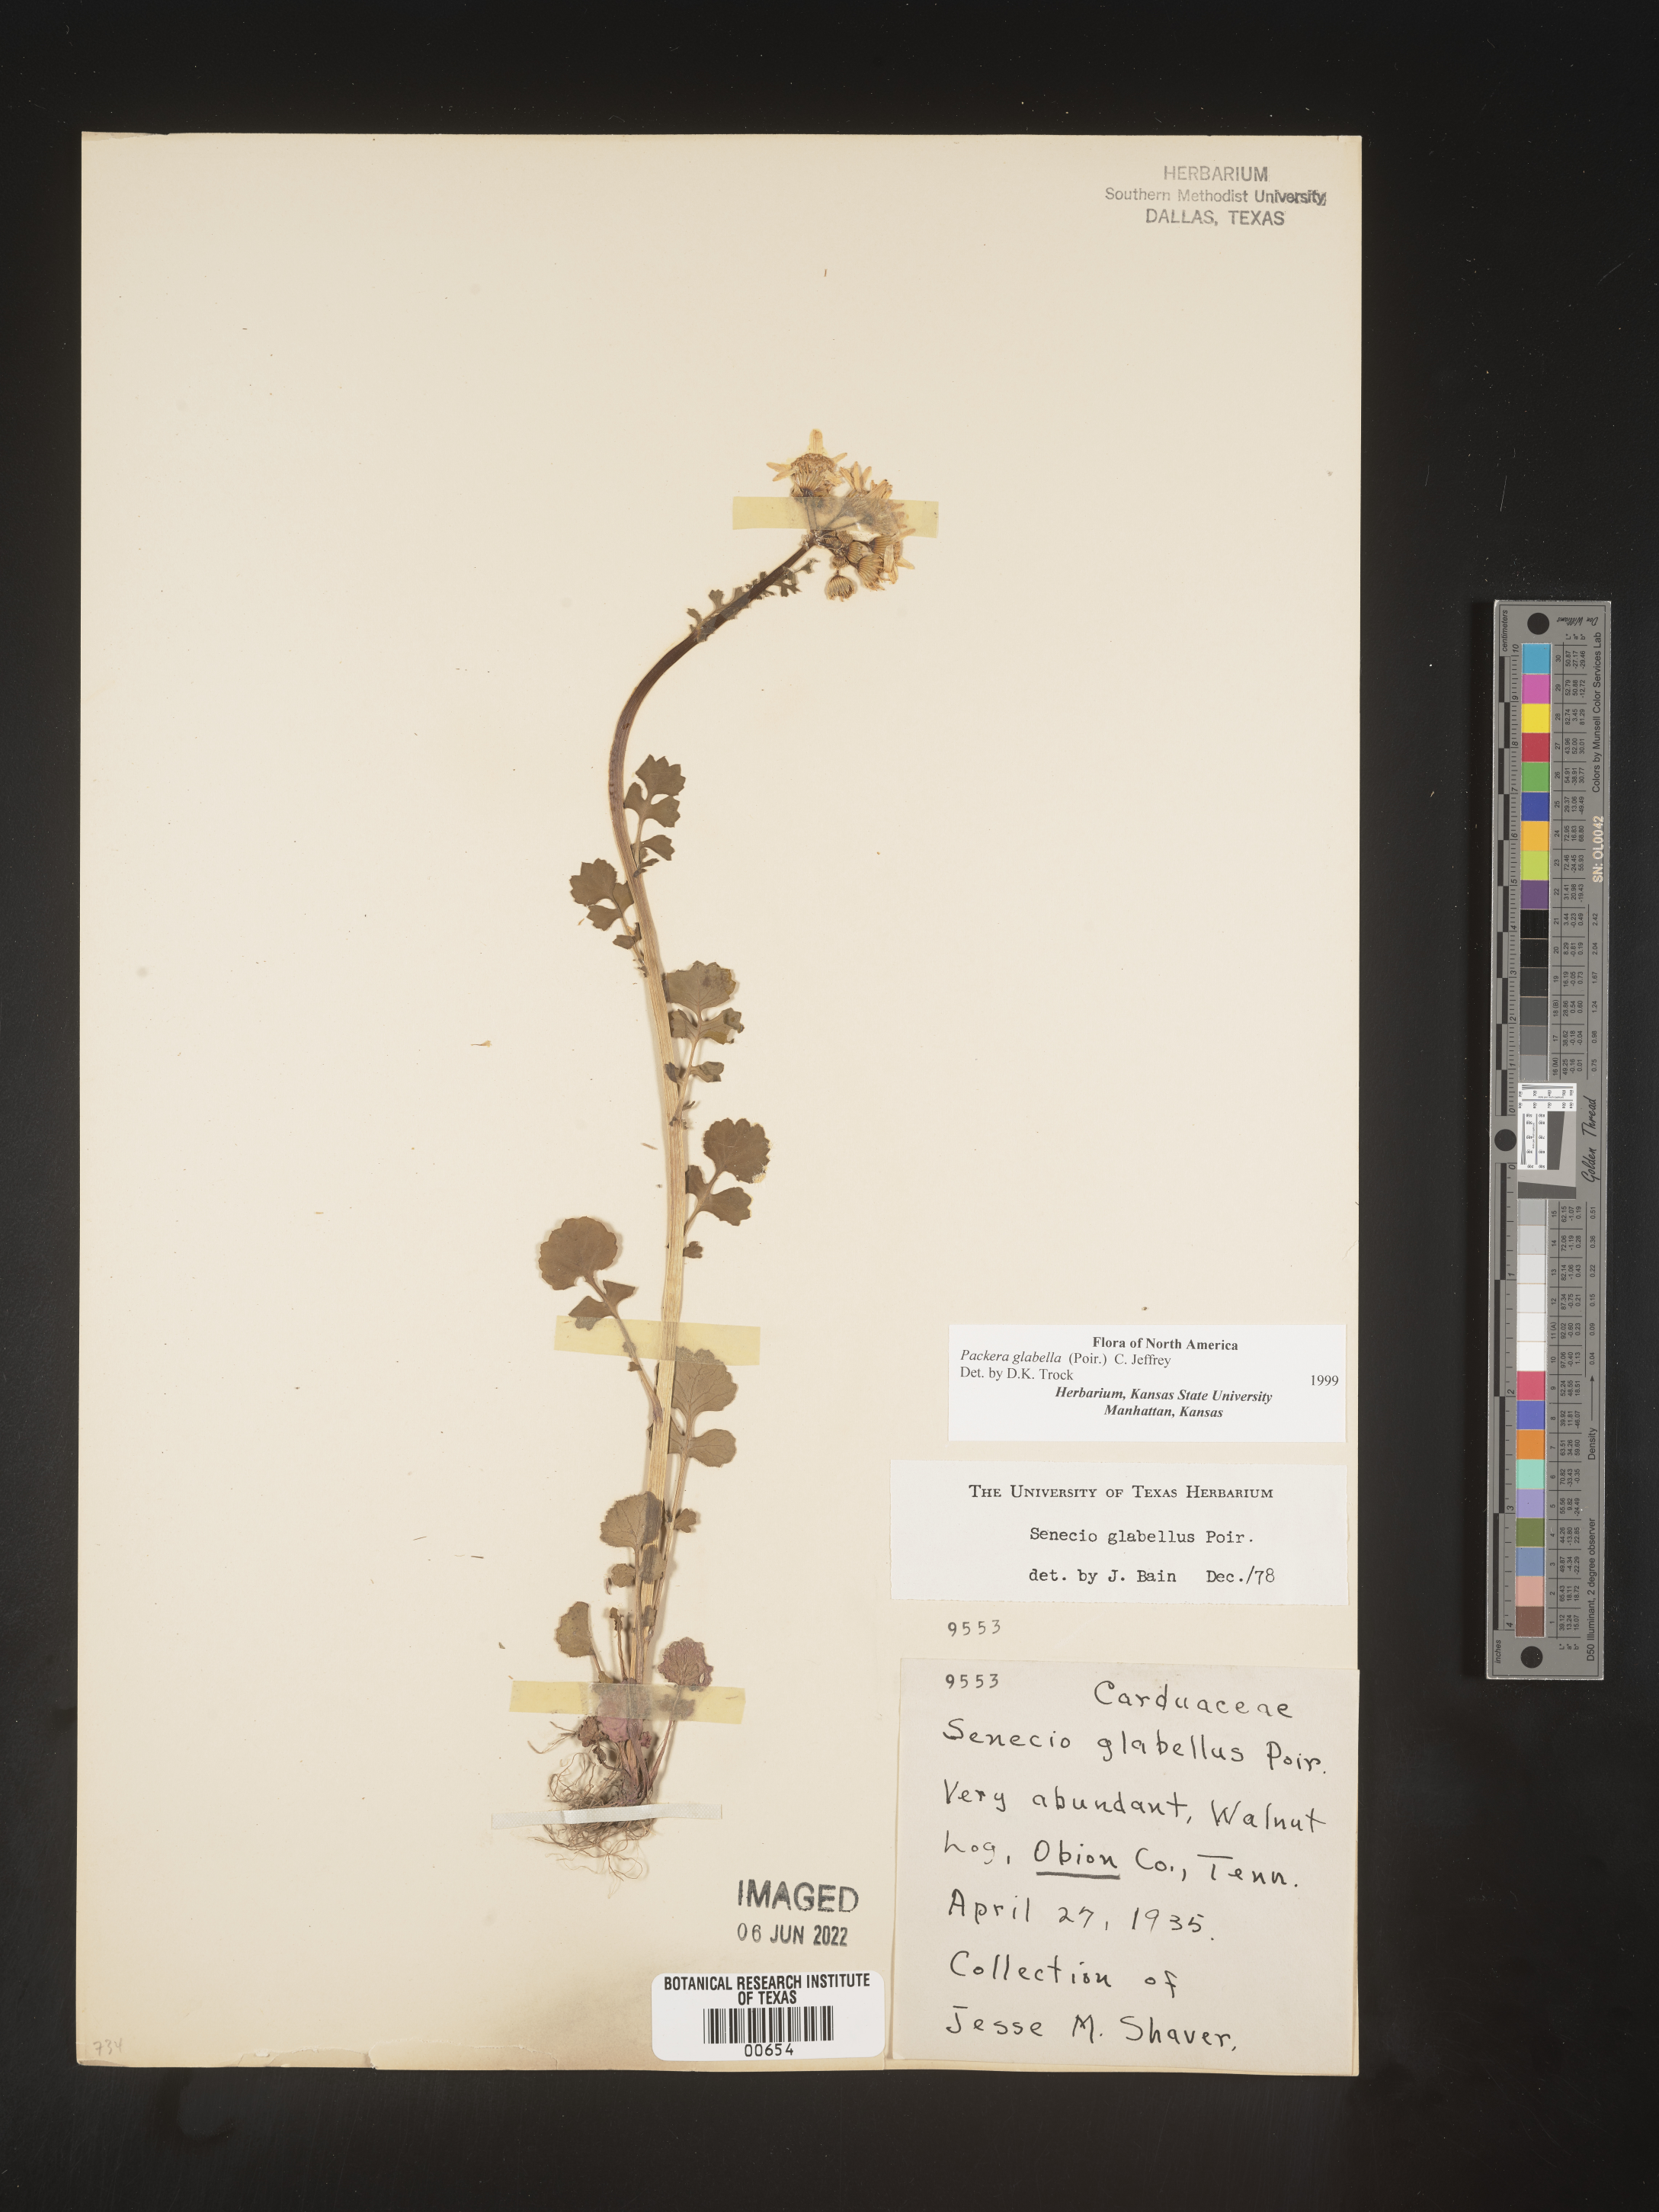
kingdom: Plantae
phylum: Tracheophyta
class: Magnoliopsida
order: Asterales
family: Asteraceae
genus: Packera
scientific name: Packera glabella
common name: Butterweed
